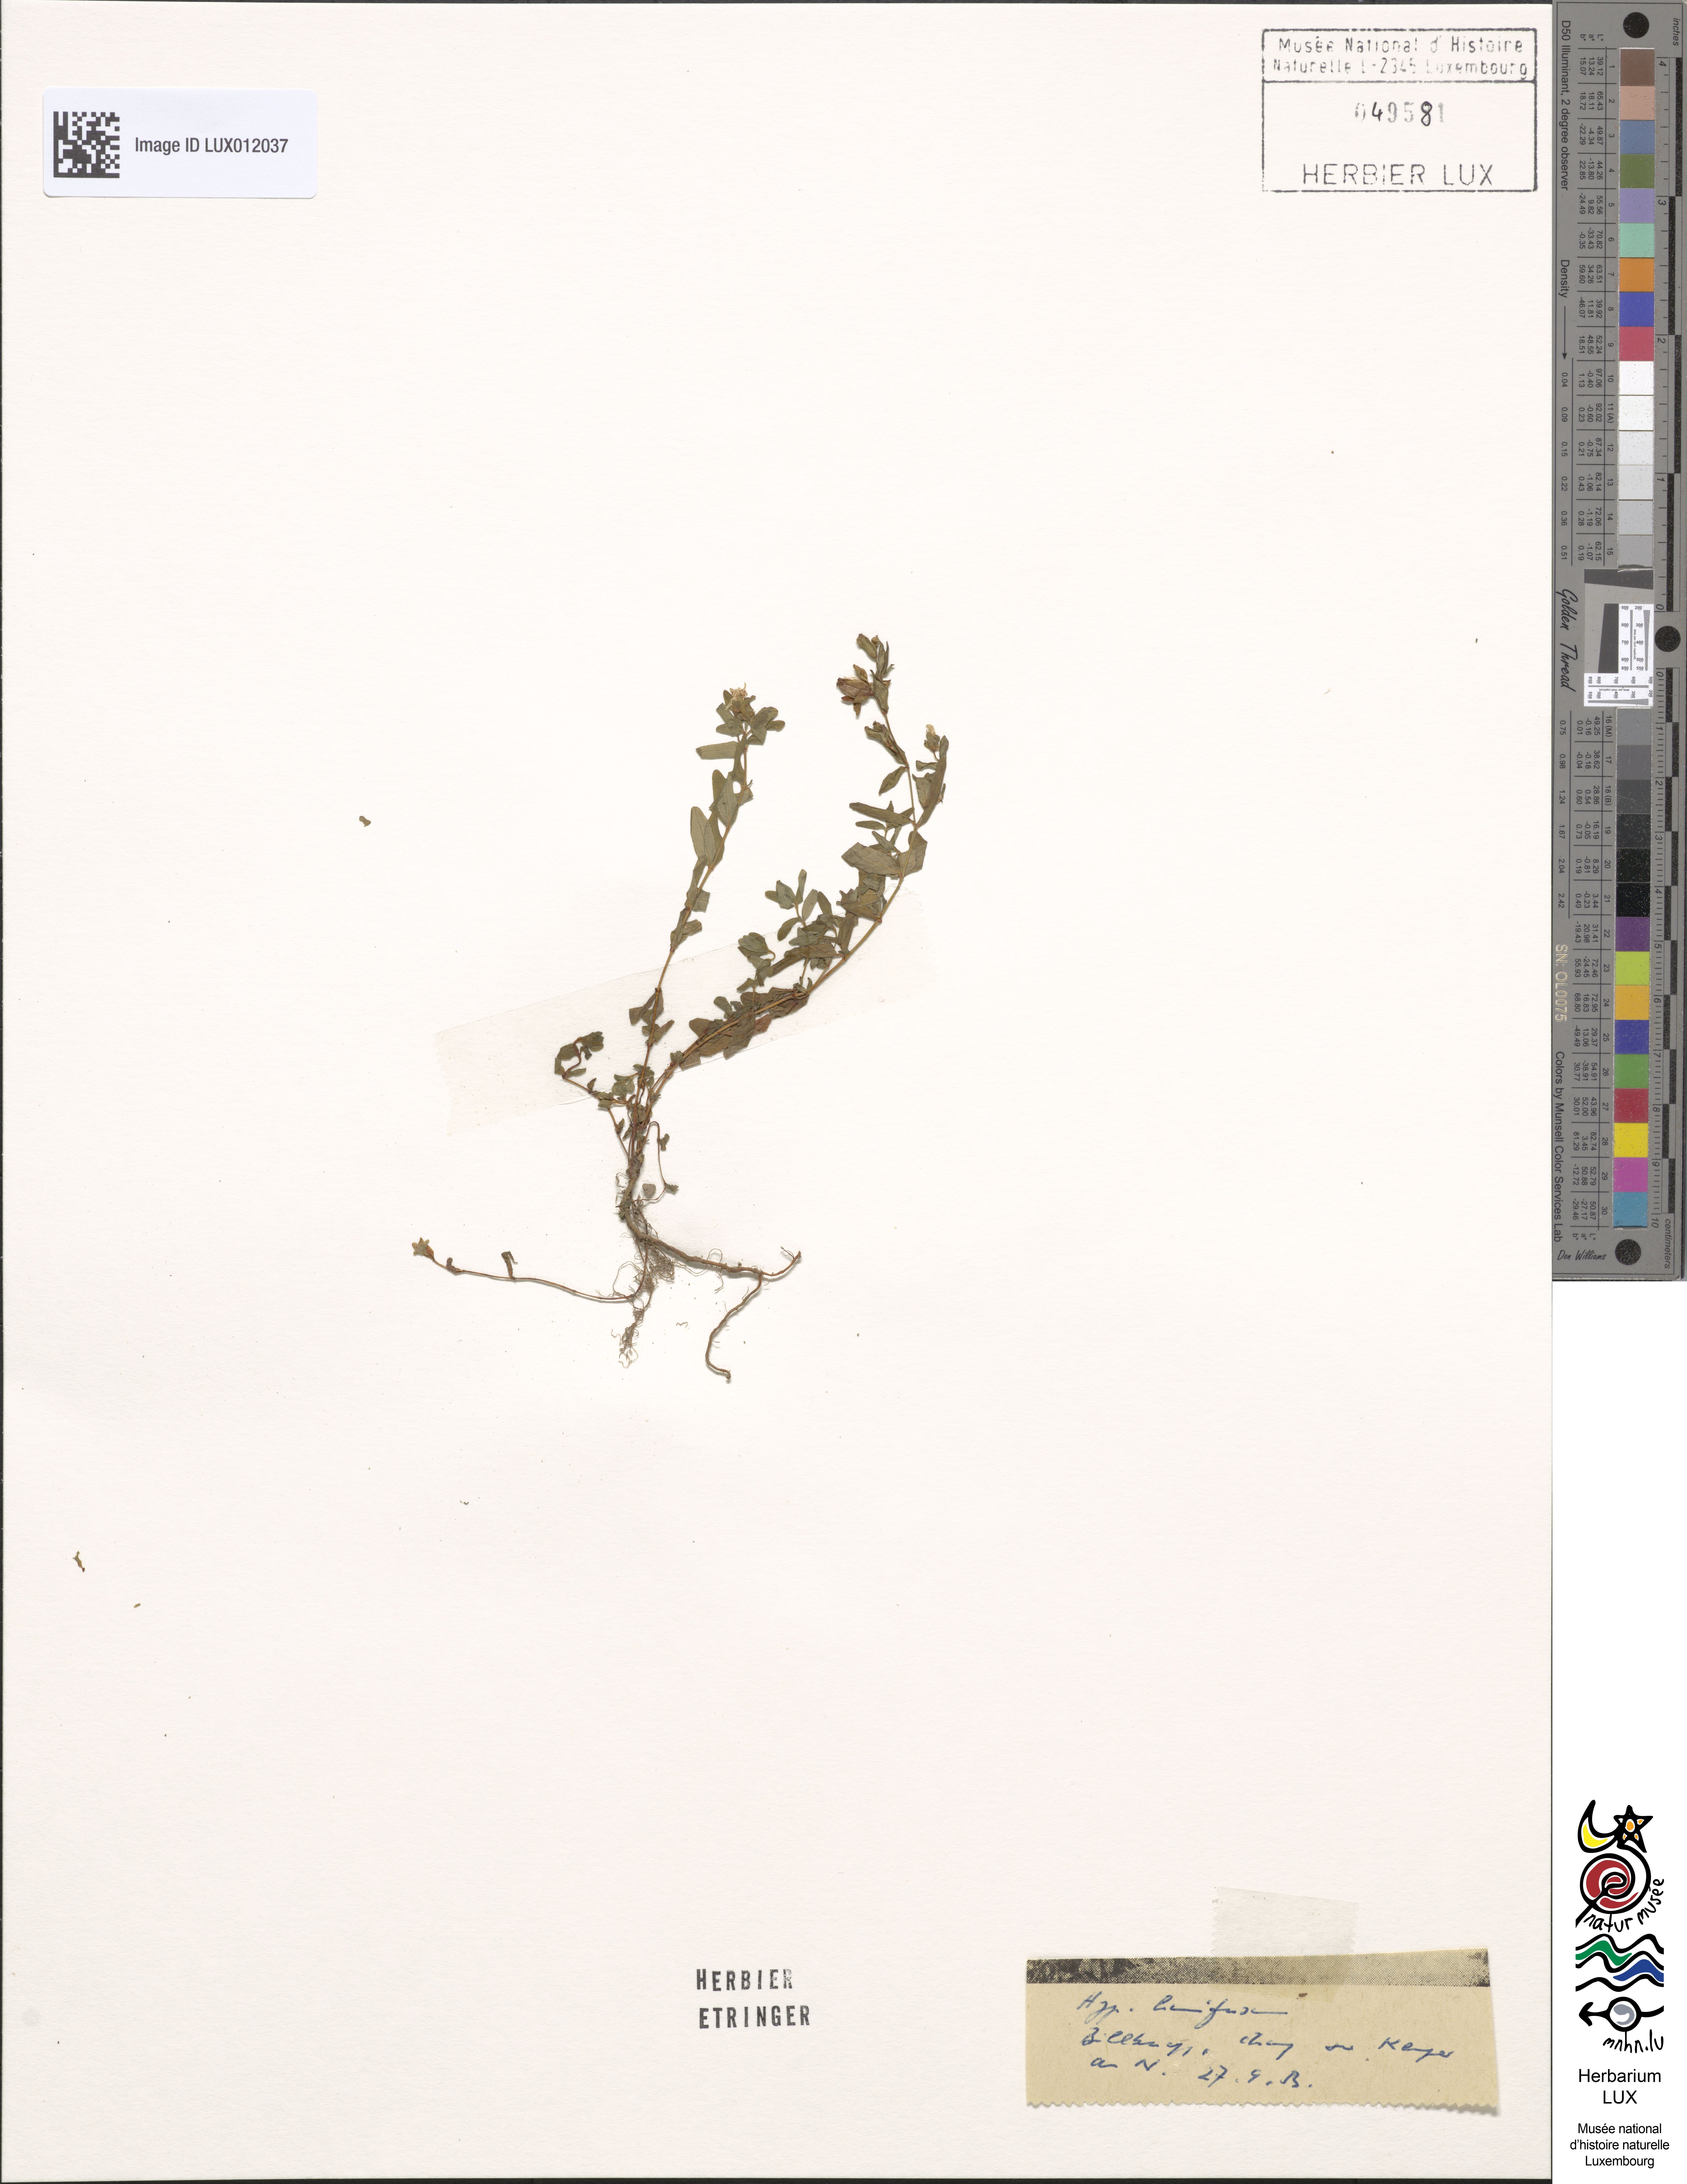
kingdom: Plantae
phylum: Tracheophyta
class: Magnoliopsida
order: Malpighiales
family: Hypericaceae
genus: Hypericum
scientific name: Hypericum humifusum
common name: Trailing st. john's-wort
